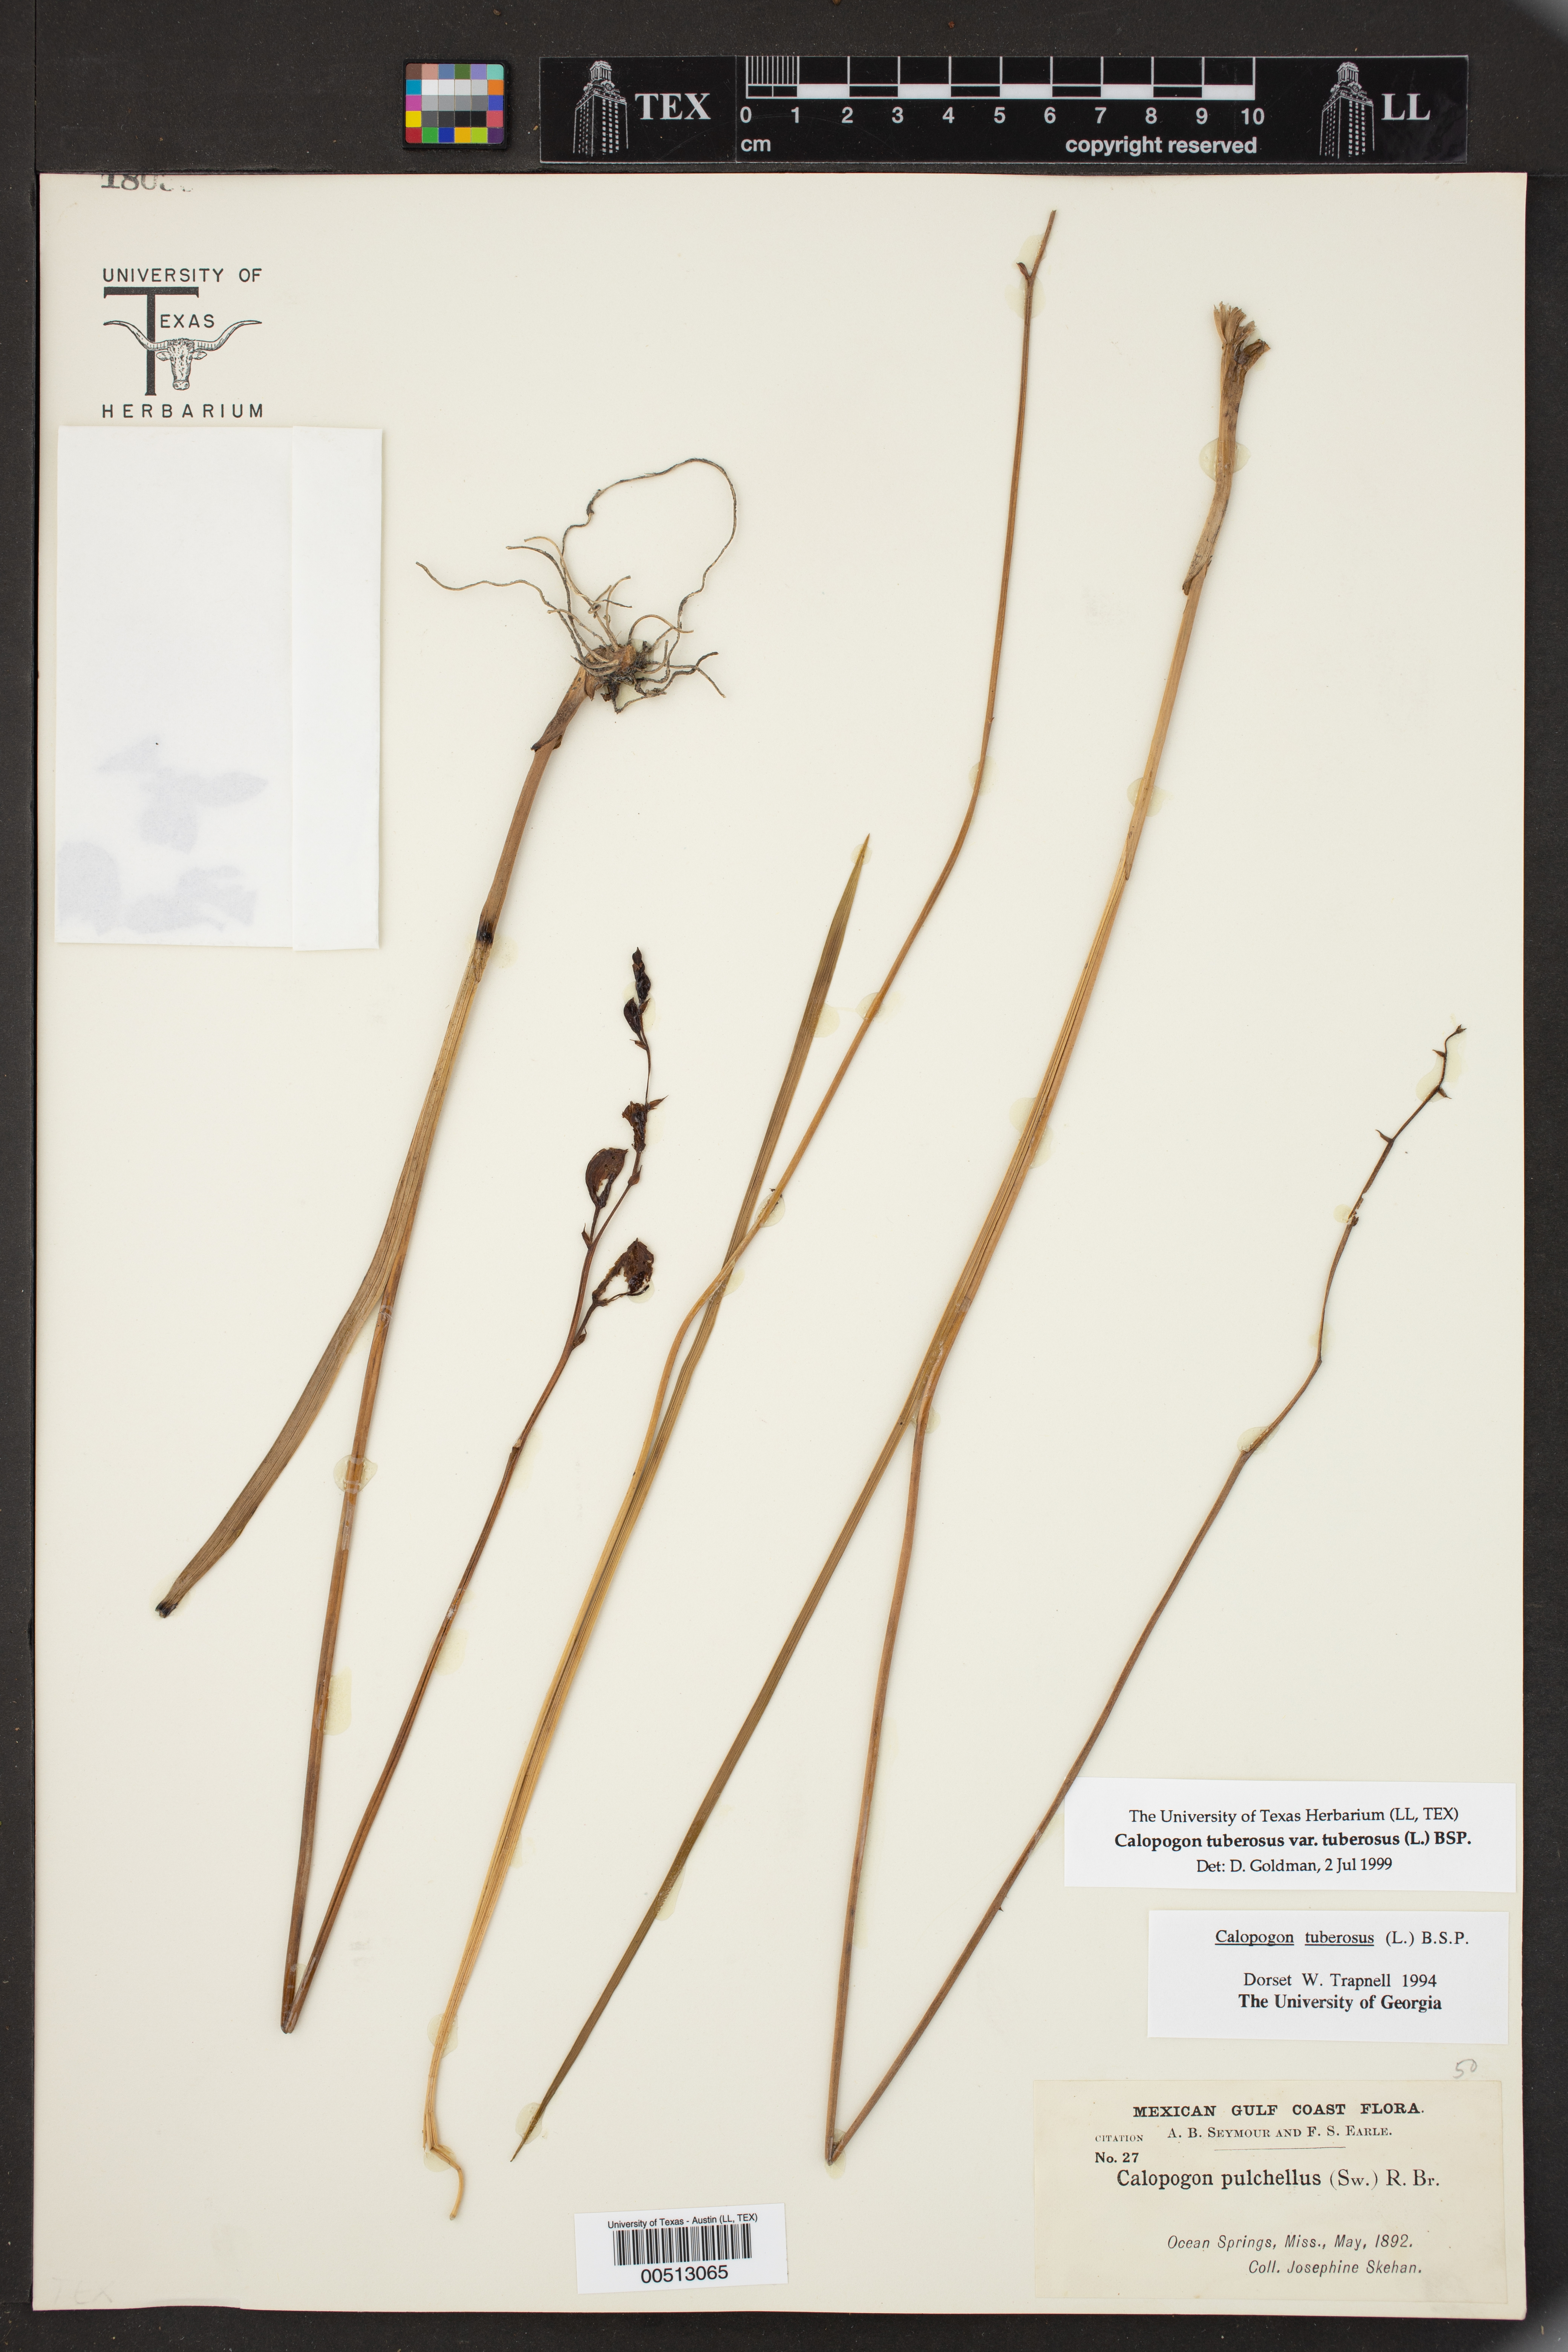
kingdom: Plantae
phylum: Tracheophyta
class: Liliopsida
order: Asparagales
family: Orchidaceae
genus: Calopogon
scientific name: Calopogon tuberosus
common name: Grass-pink
